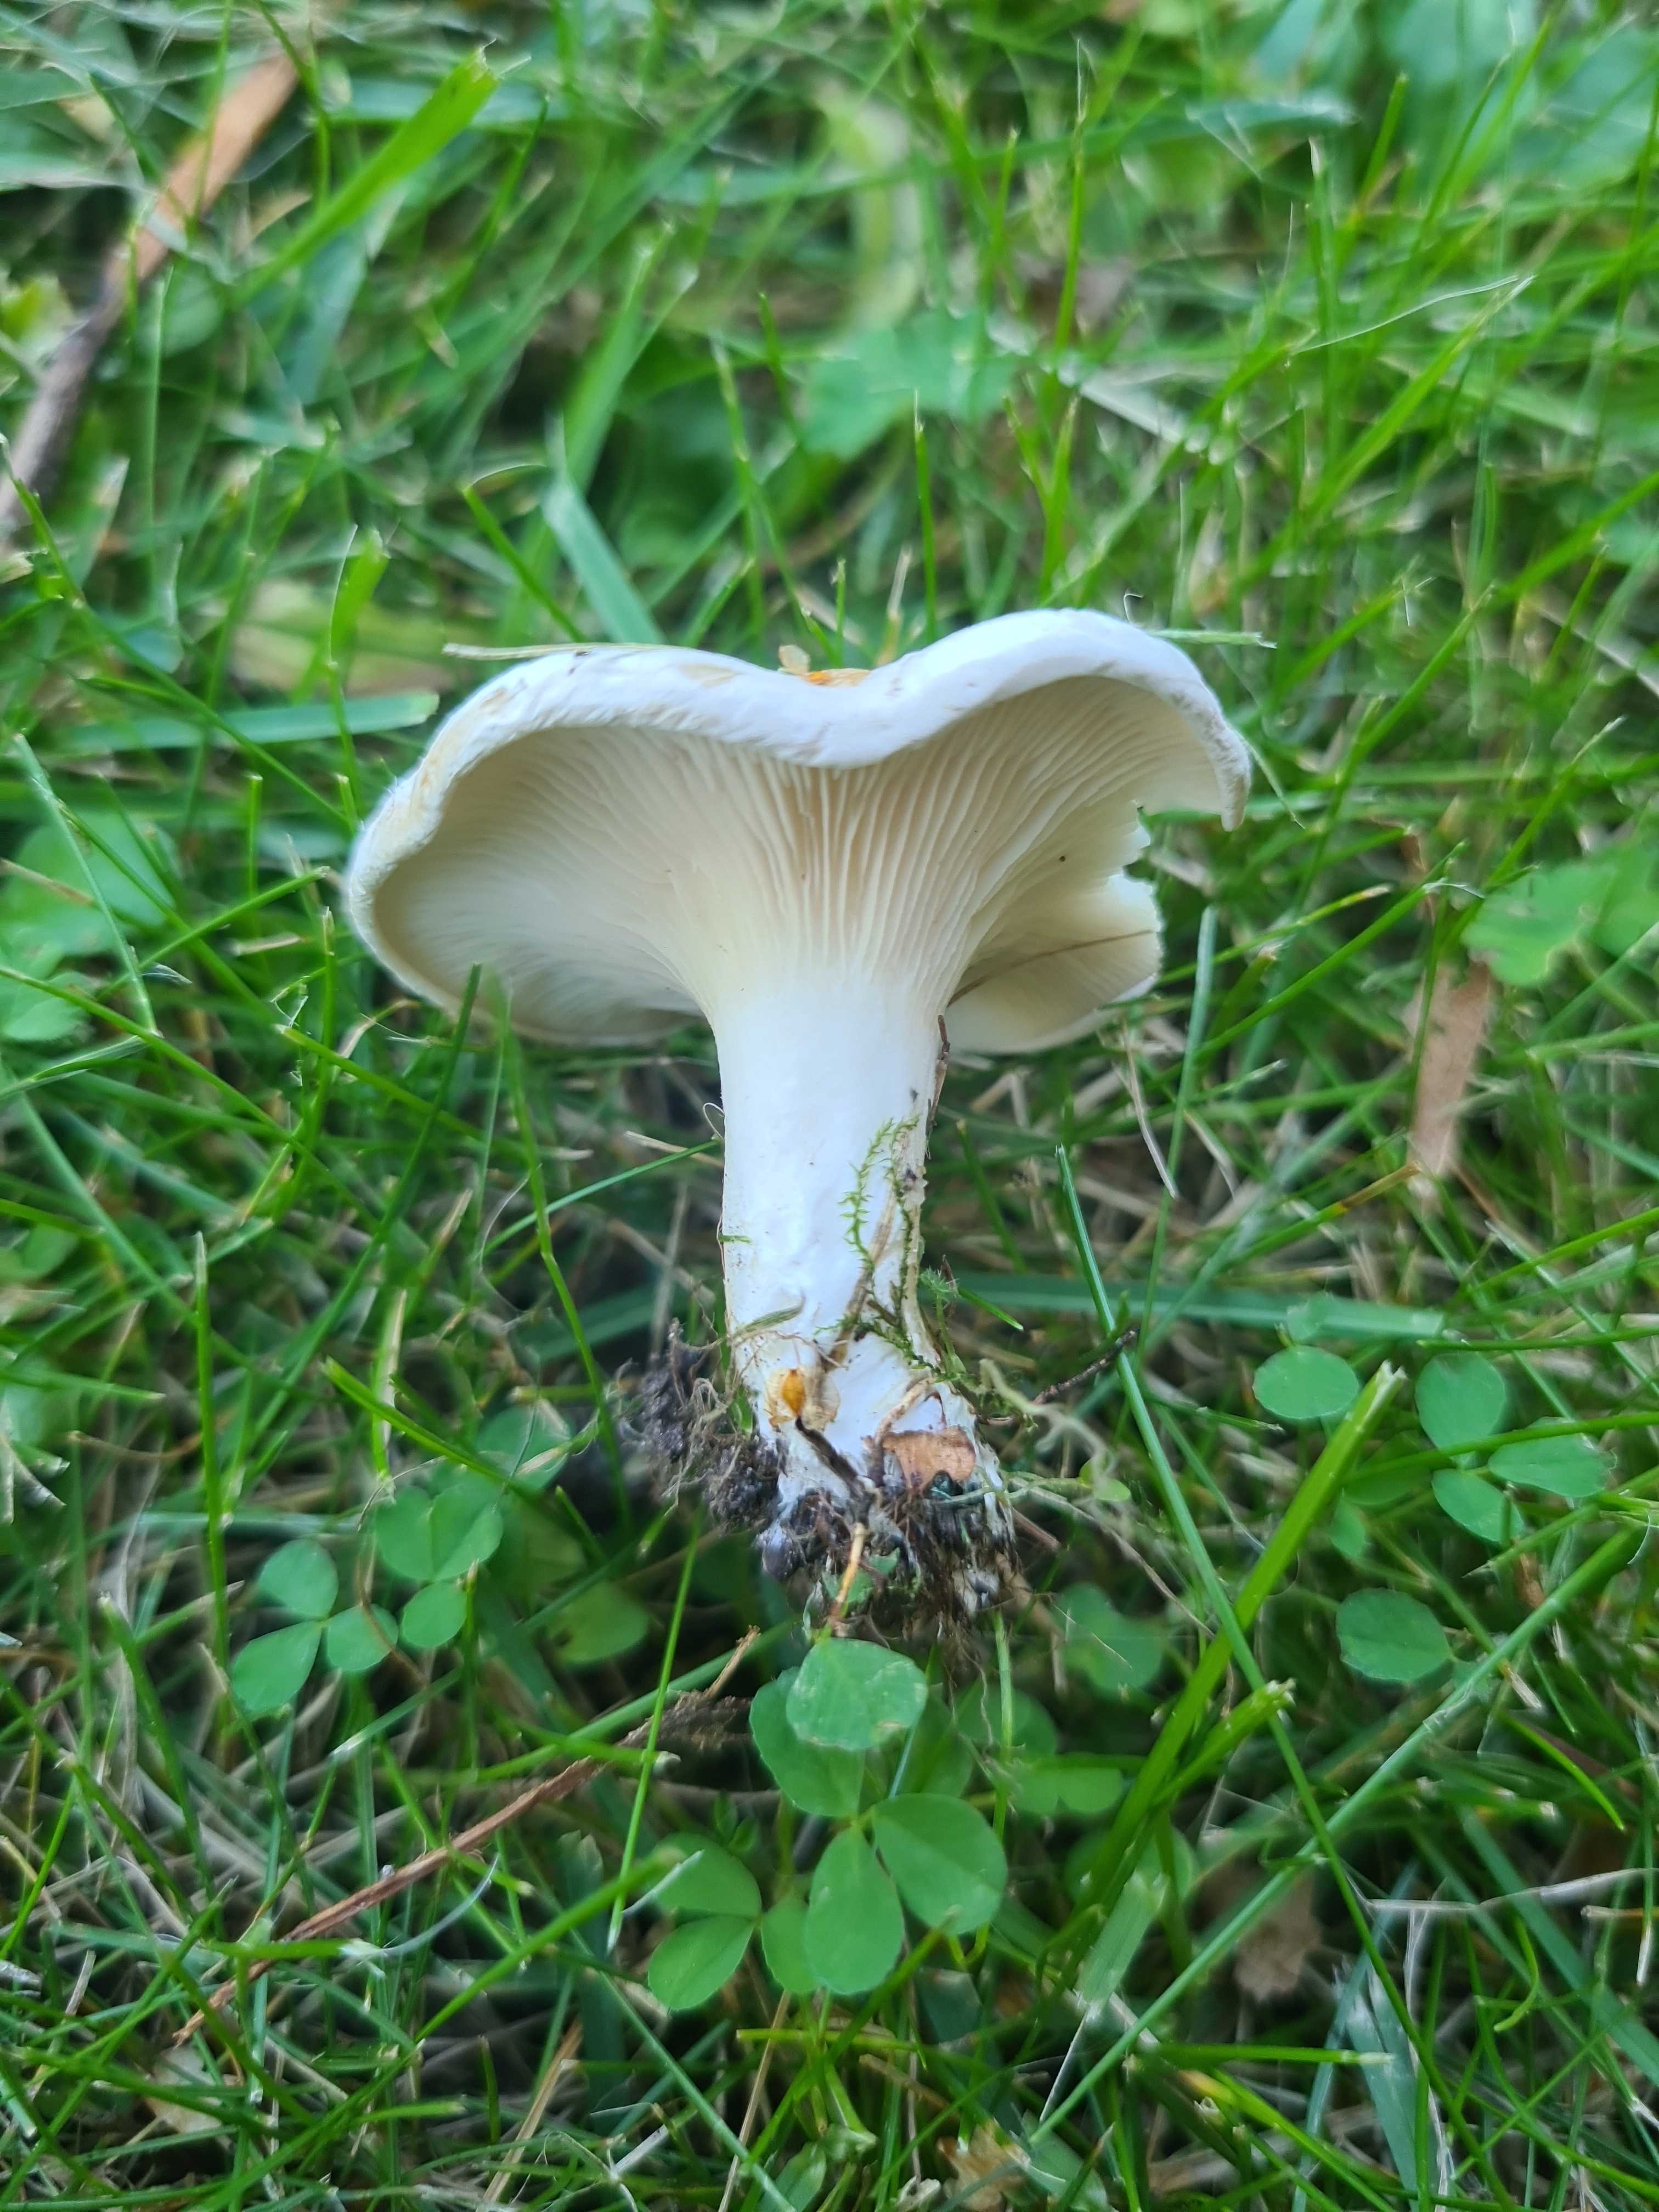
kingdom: Fungi
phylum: Basidiomycota
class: Agaricomycetes
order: Agaricales
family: Entolomataceae
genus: Clitopilus
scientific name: Clitopilus prunulus
